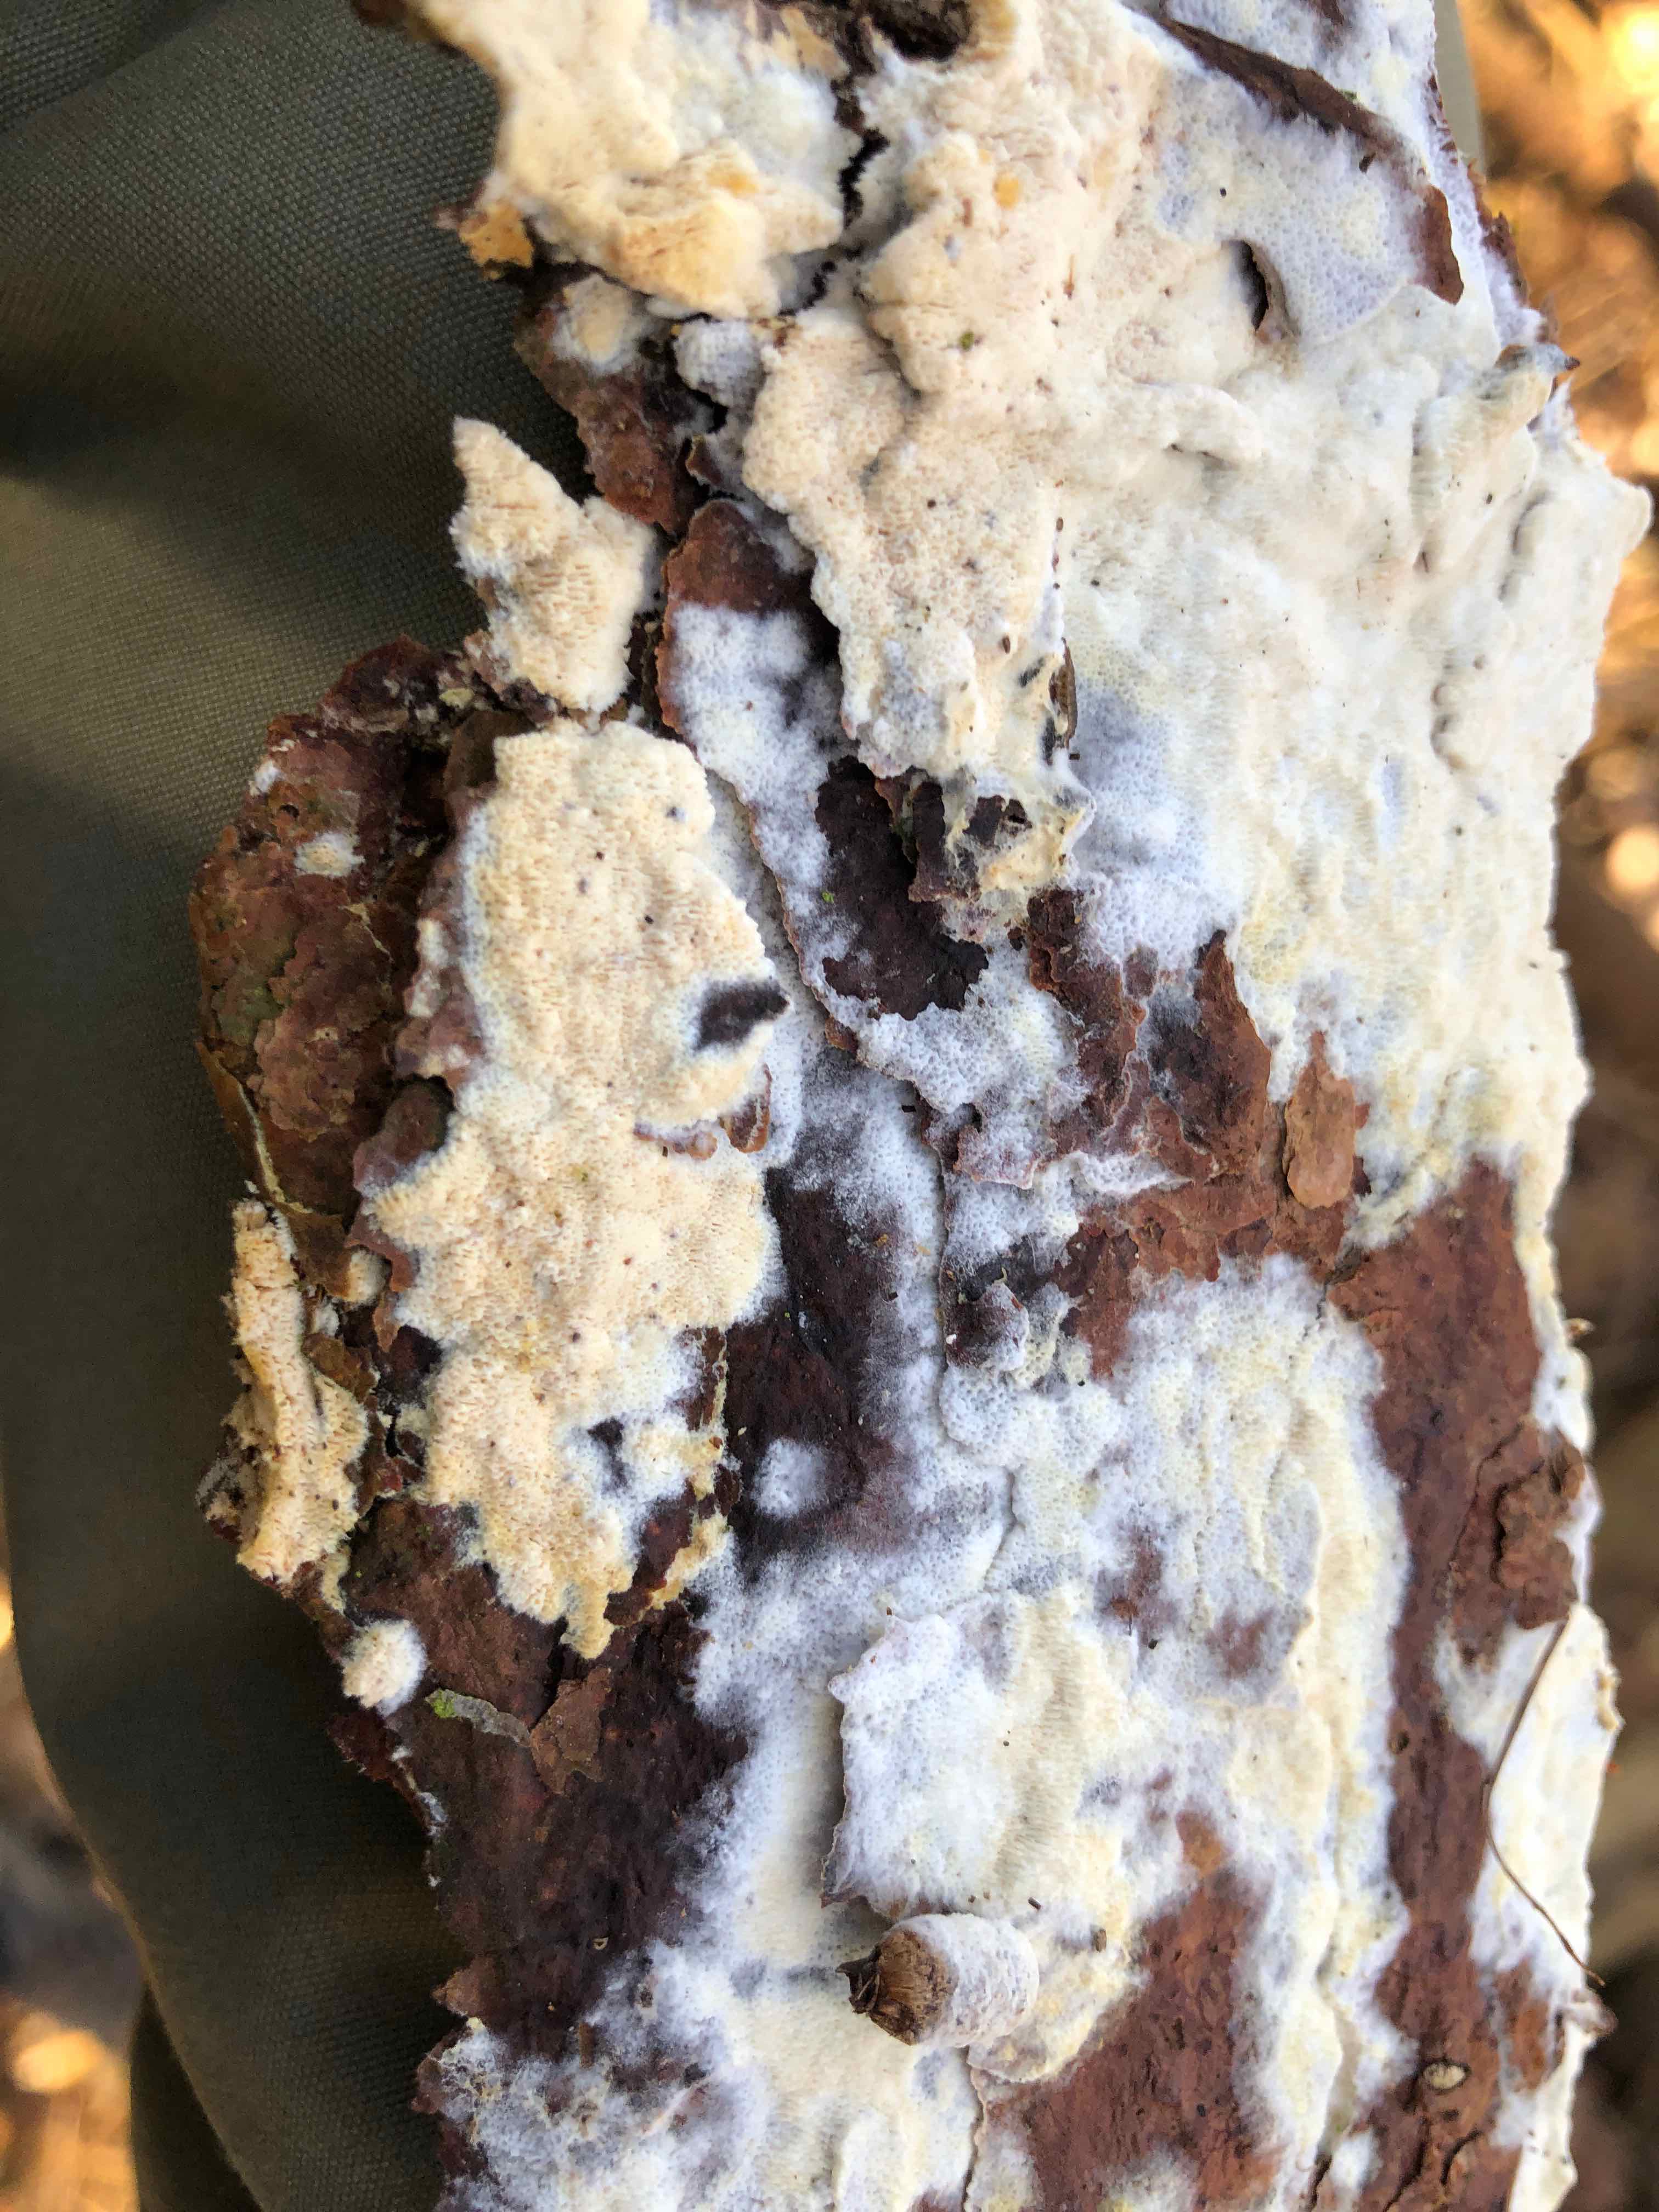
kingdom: Fungi
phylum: Basidiomycota
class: Agaricomycetes
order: Hymenochaetales
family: Schizoporaceae
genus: Xylodon
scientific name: Xylodon
